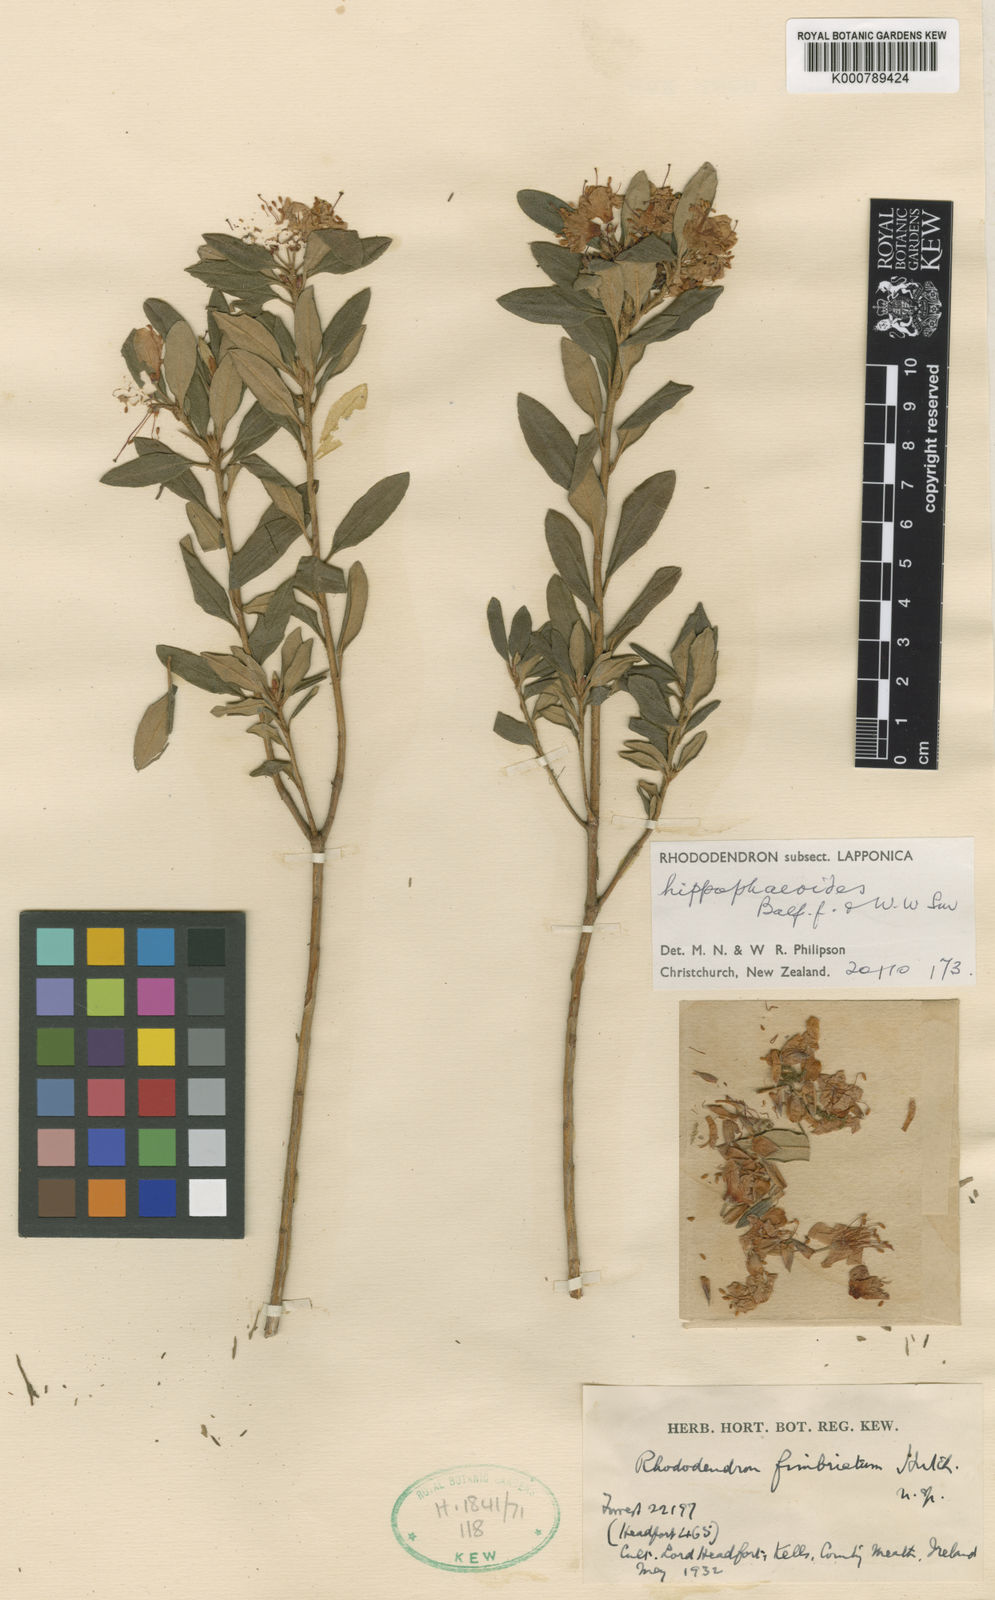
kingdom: Plantae
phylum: Tracheophyta
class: Magnoliopsida
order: Ericales
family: Ericaceae
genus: Rhododendron
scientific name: Rhododendron
